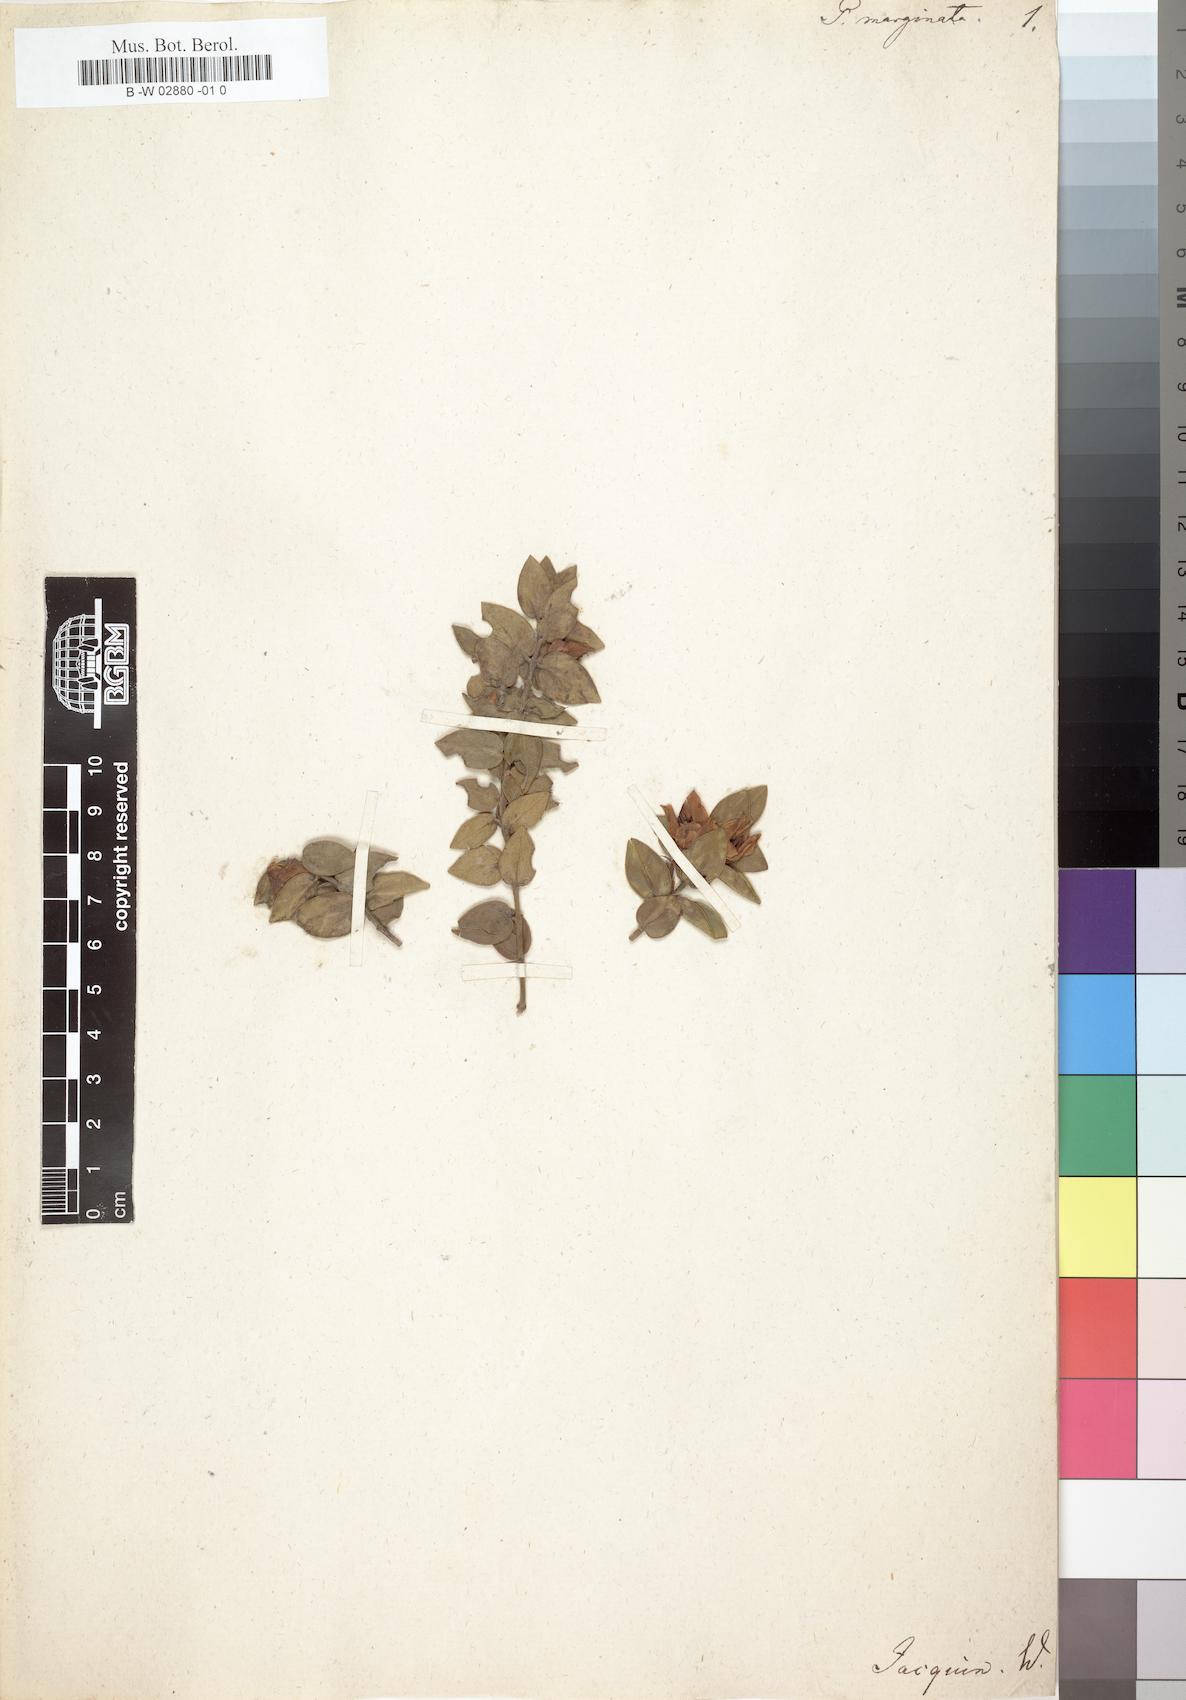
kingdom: Plantae
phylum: Tracheophyta
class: Magnoliopsida
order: Crossosomatales
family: Geissolomataceae
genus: Geissoloma
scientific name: Geissoloma marginata
